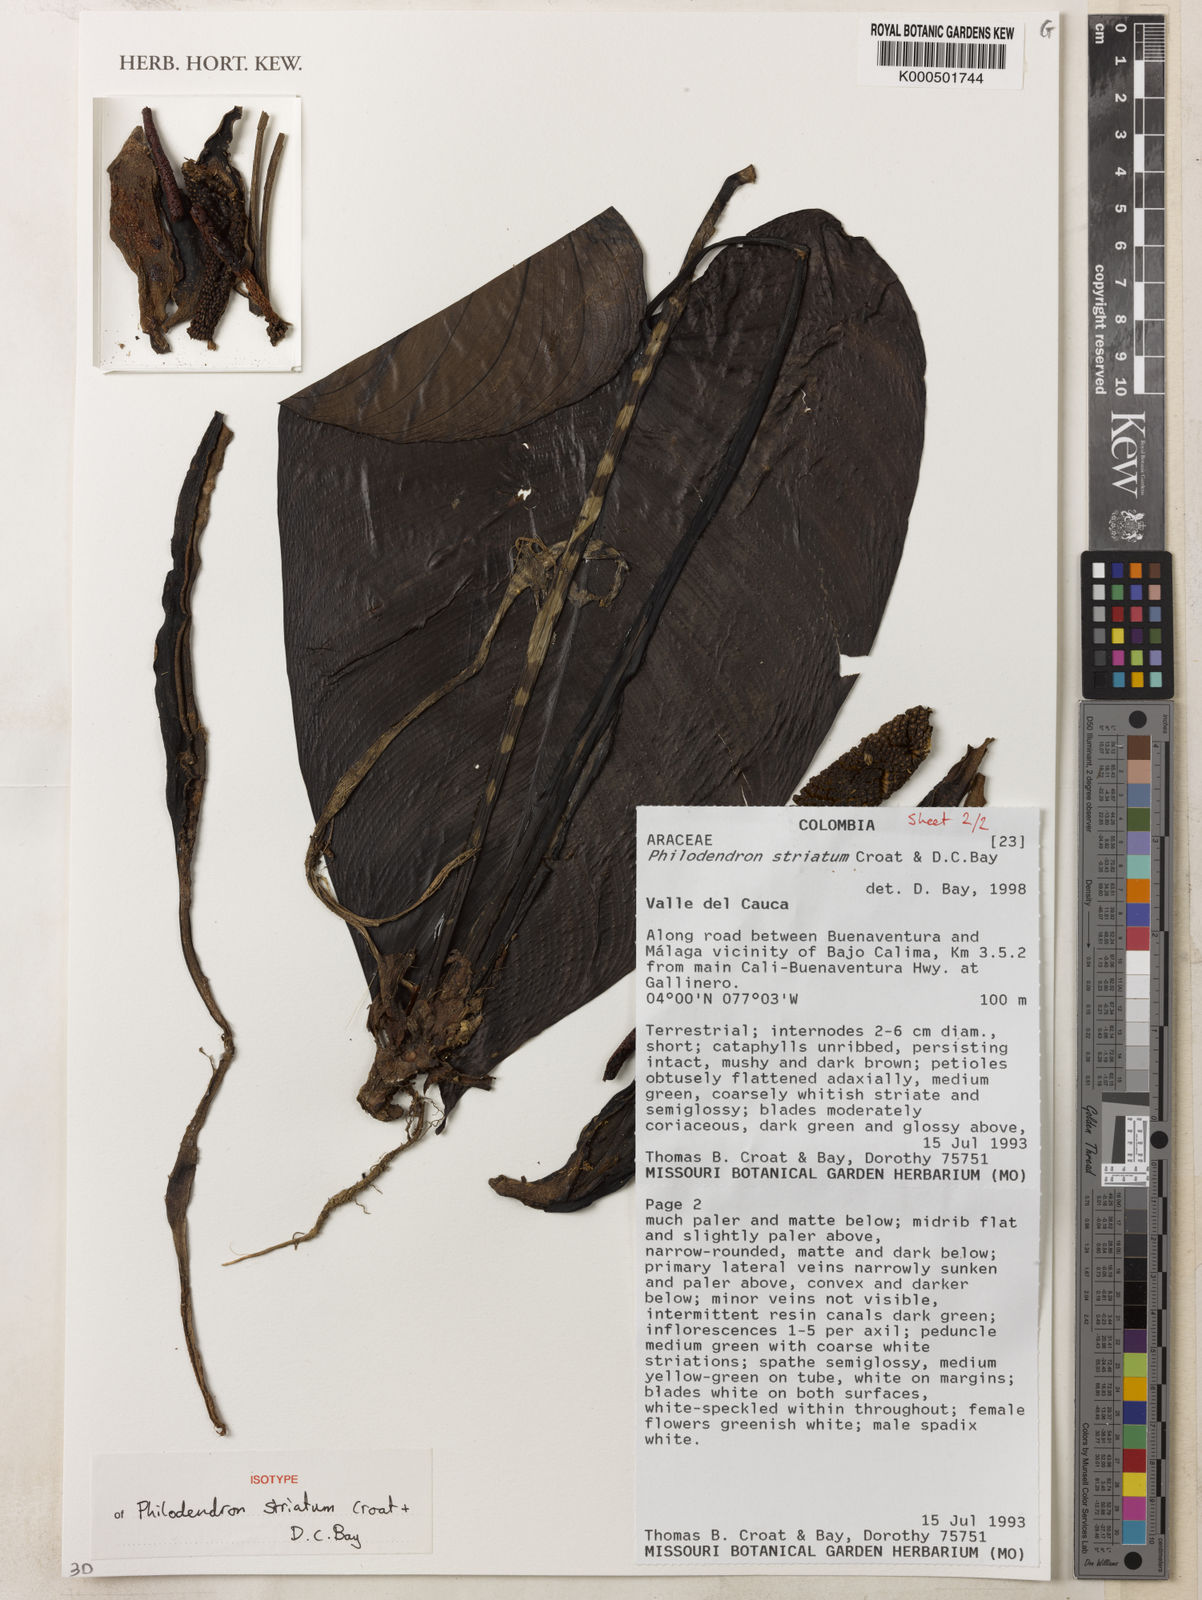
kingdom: Plantae
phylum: Tracheophyta
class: Liliopsida
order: Alismatales
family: Araceae
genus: Philodendron
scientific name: Philodendron striatum
